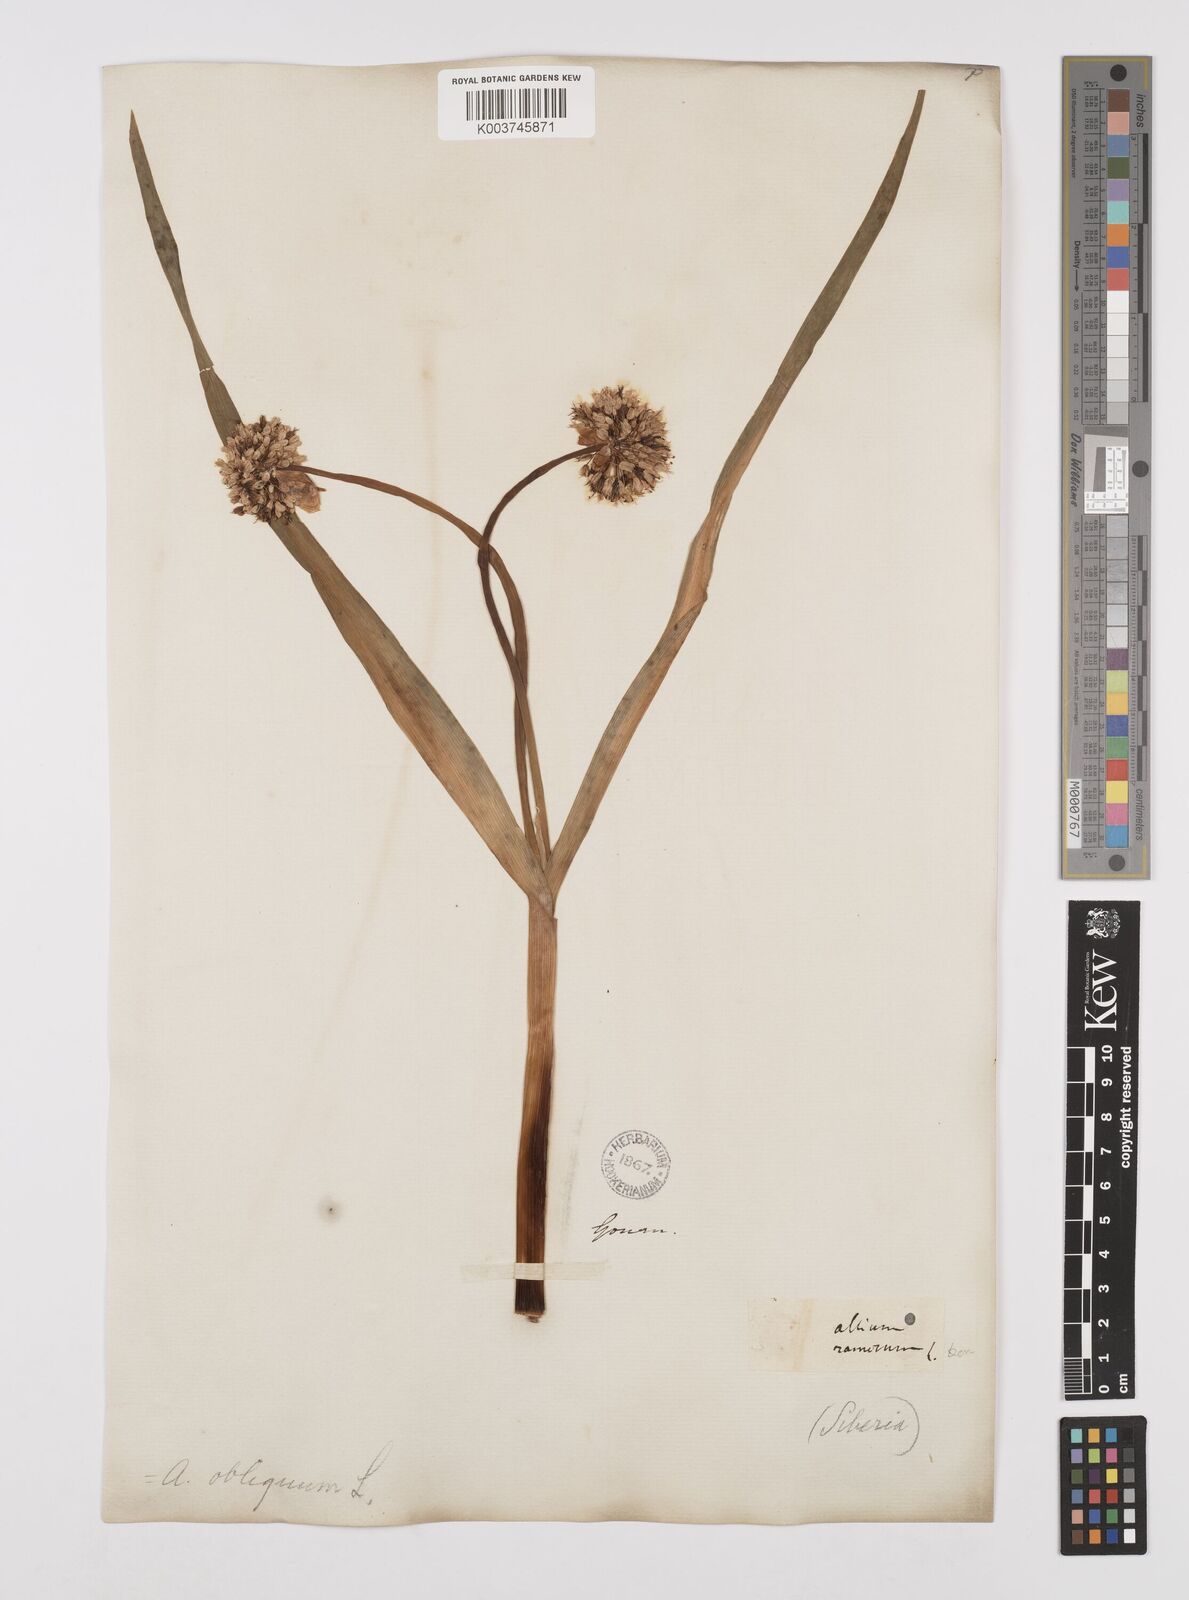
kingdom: Plantae
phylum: Tracheophyta
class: Liliopsida
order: Asparagales
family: Amaryllidaceae
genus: Allium
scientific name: Allium obliquum
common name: Oblique onion
